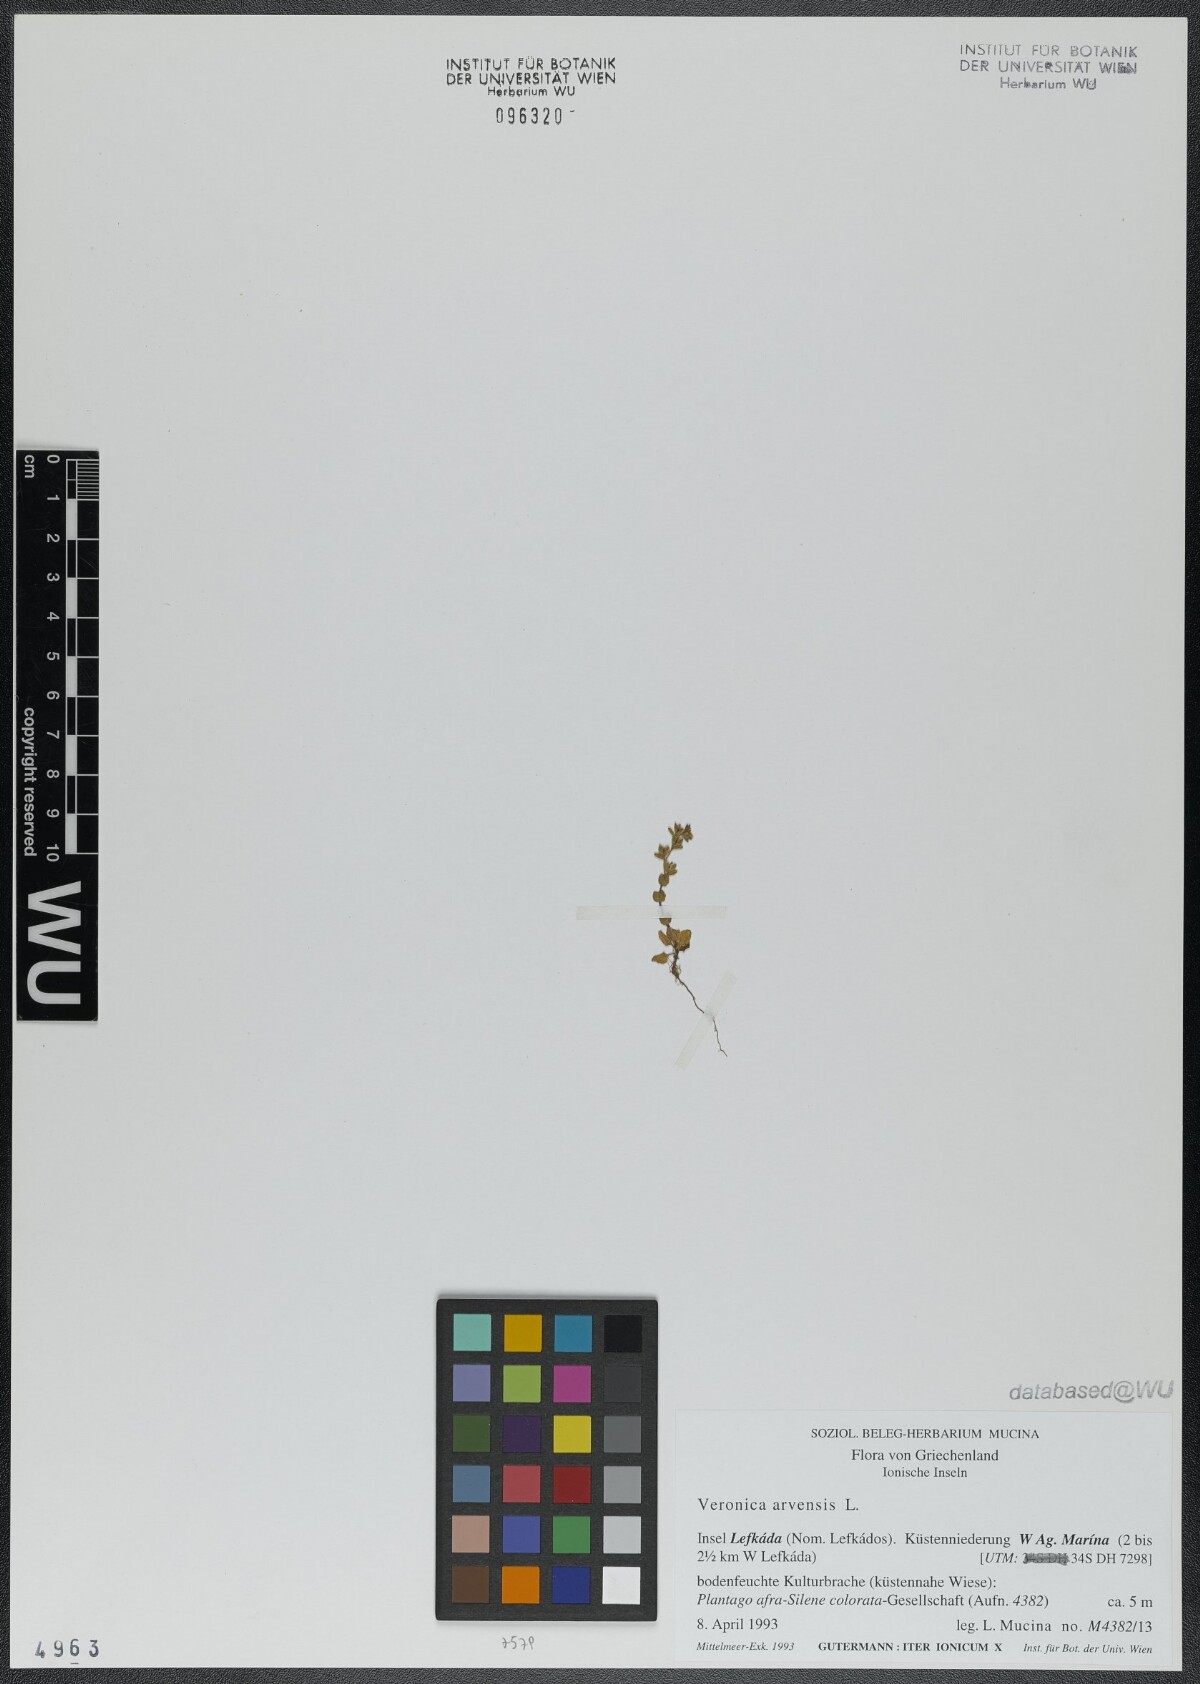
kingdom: Plantae
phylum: Tracheophyta
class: Magnoliopsida
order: Lamiales
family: Plantaginaceae
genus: Veronica
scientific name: Veronica arvensis
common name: Corn speedwell
